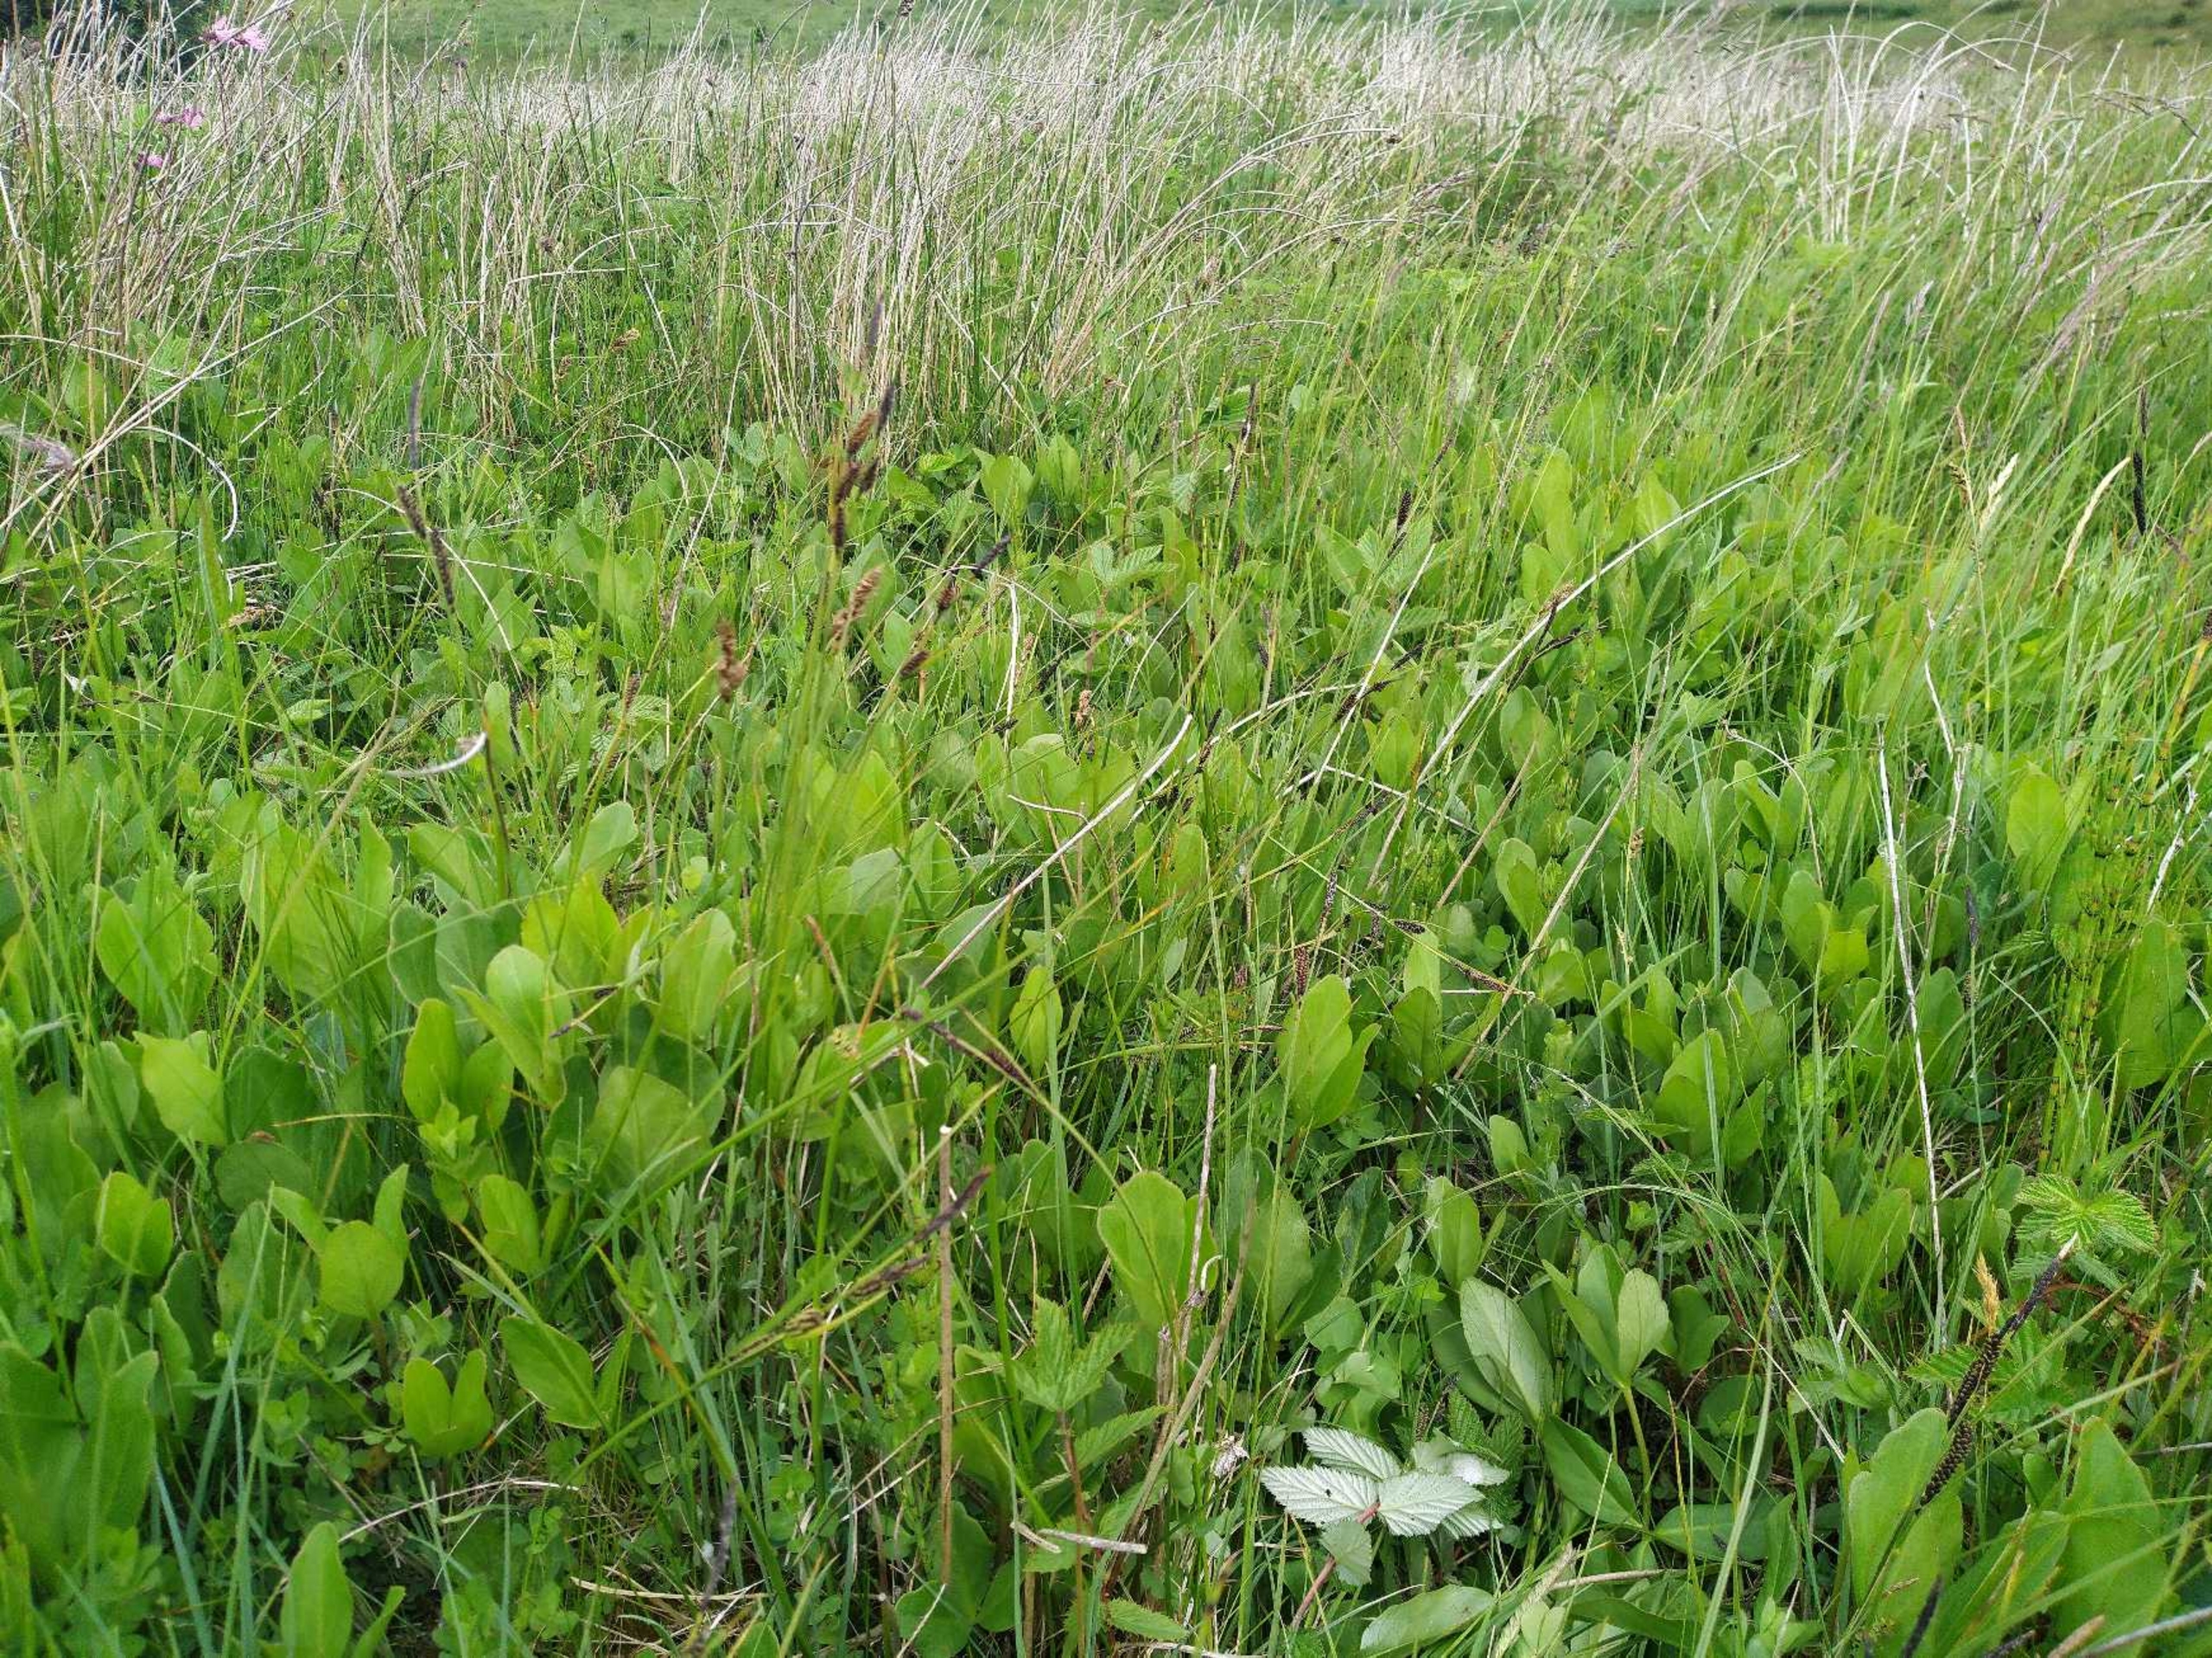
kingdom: Plantae
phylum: Tracheophyta
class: Magnoliopsida
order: Asterales
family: Menyanthaceae
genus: Menyanthes
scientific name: Menyanthes trifoliata
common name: Bukkeblad
